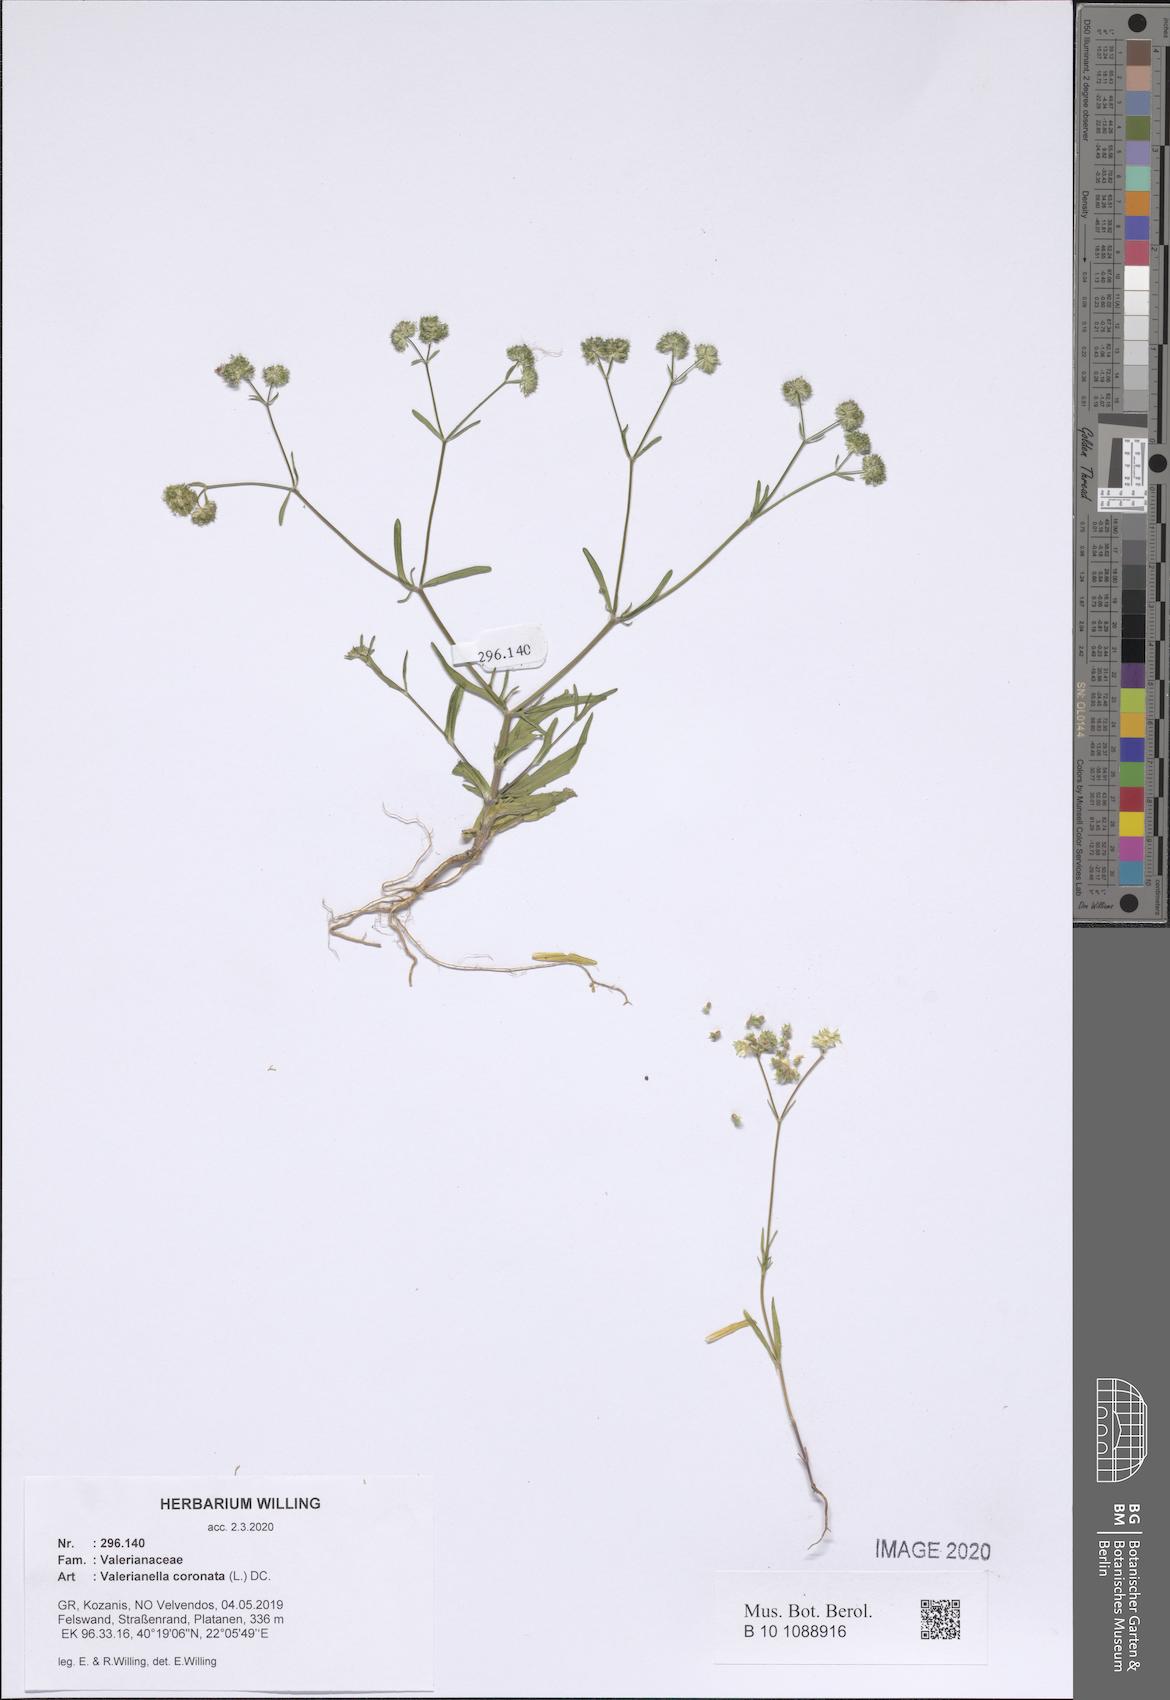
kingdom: Plantae
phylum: Tracheophyta
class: Magnoliopsida
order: Dipsacales
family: Caprifoliaceae
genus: Valerianella
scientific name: Valerianella coronata
